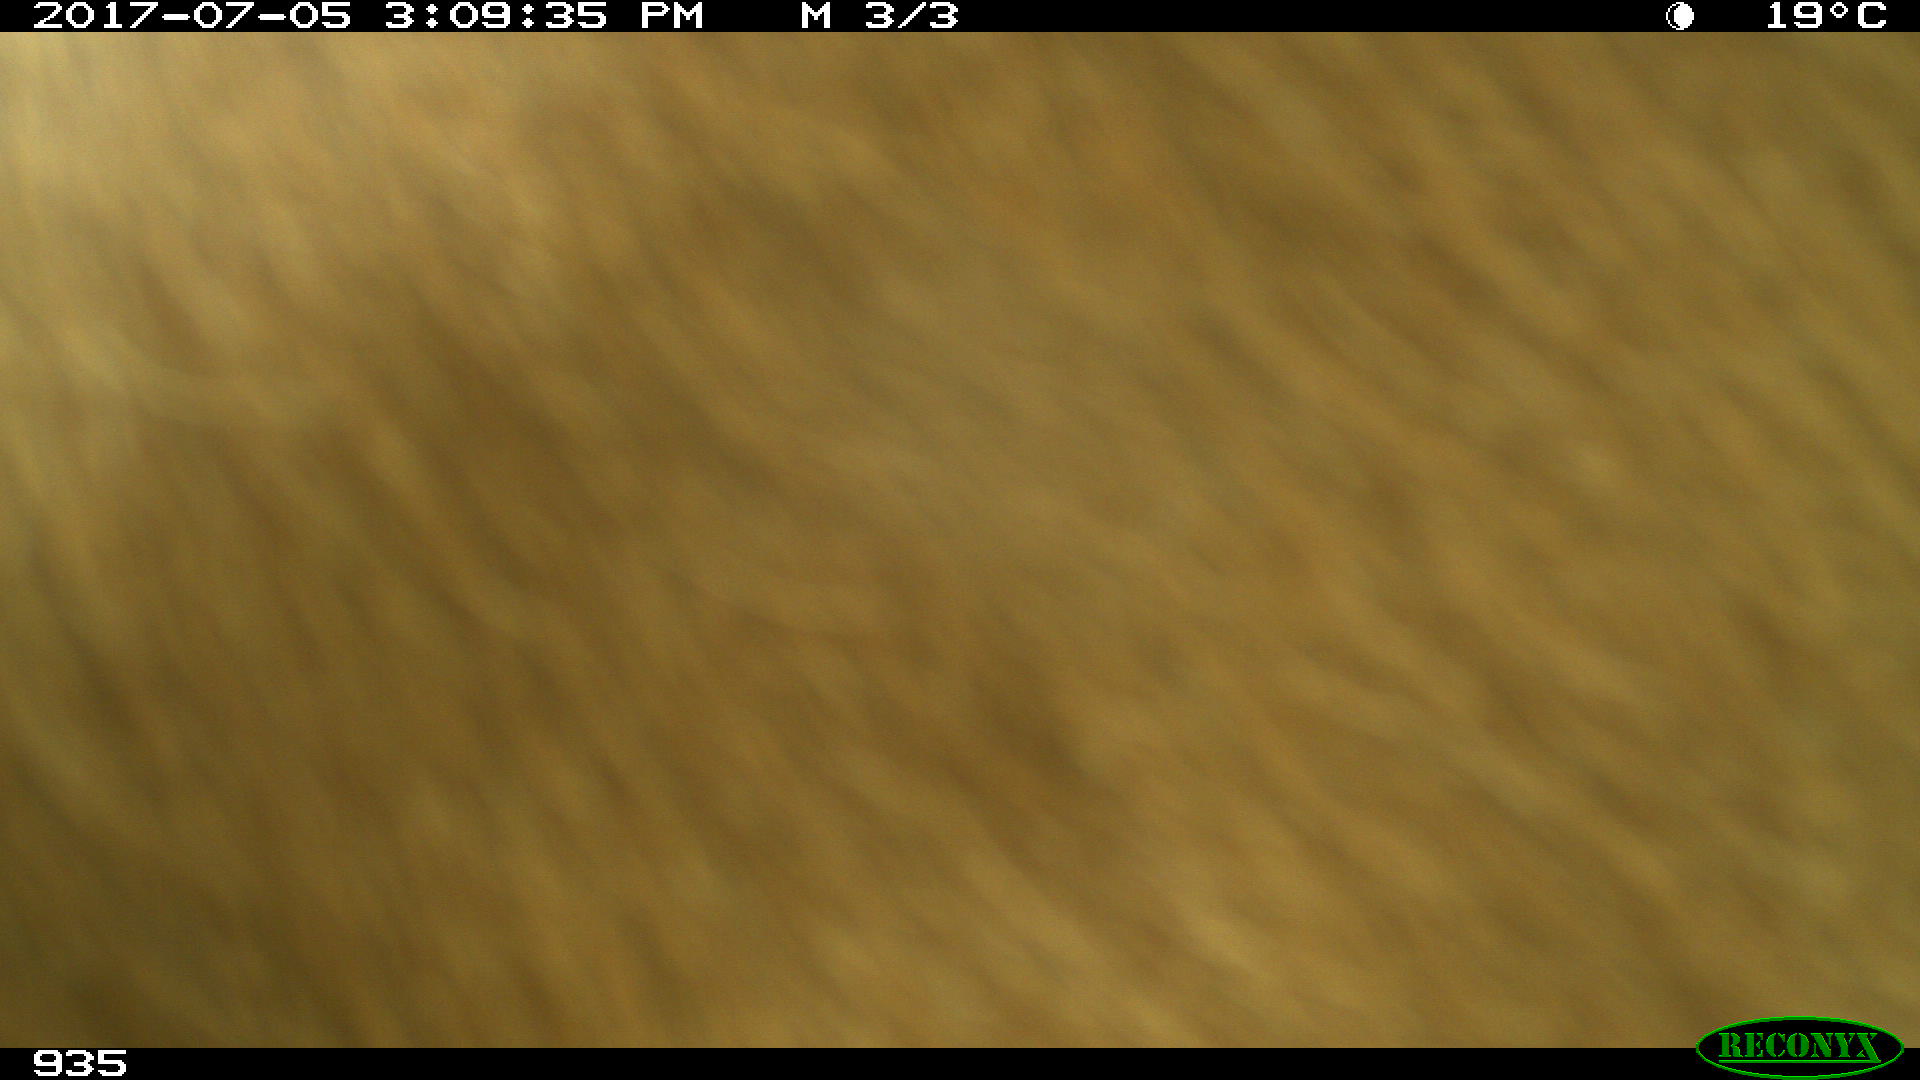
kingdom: Animalia
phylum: Chordata
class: Mammalia
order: Artiodactyla
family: Bovidae
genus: Bos
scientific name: Bos taurus
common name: Domesticated cattle
